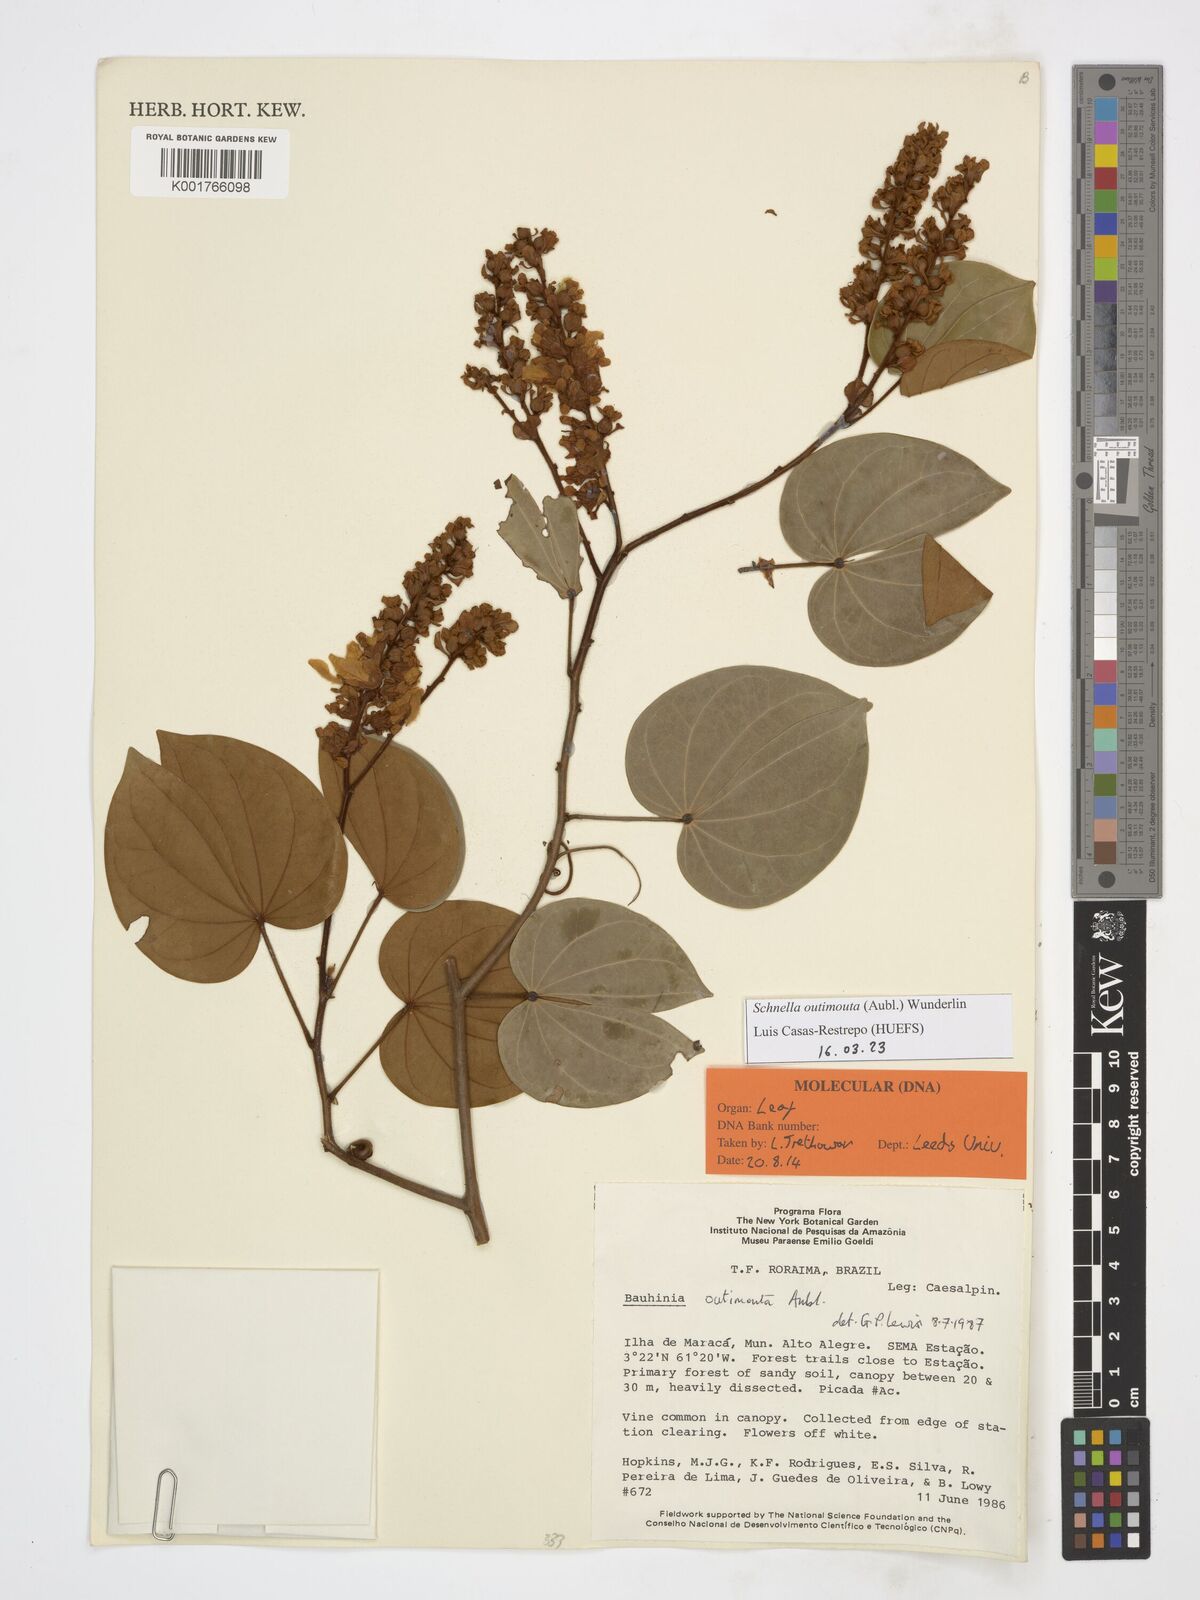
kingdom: Plantae
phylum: Tracheophyta
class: Magnoliopsida
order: Fabales
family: Fabaceae
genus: Schnella
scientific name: Schnella outimouta
